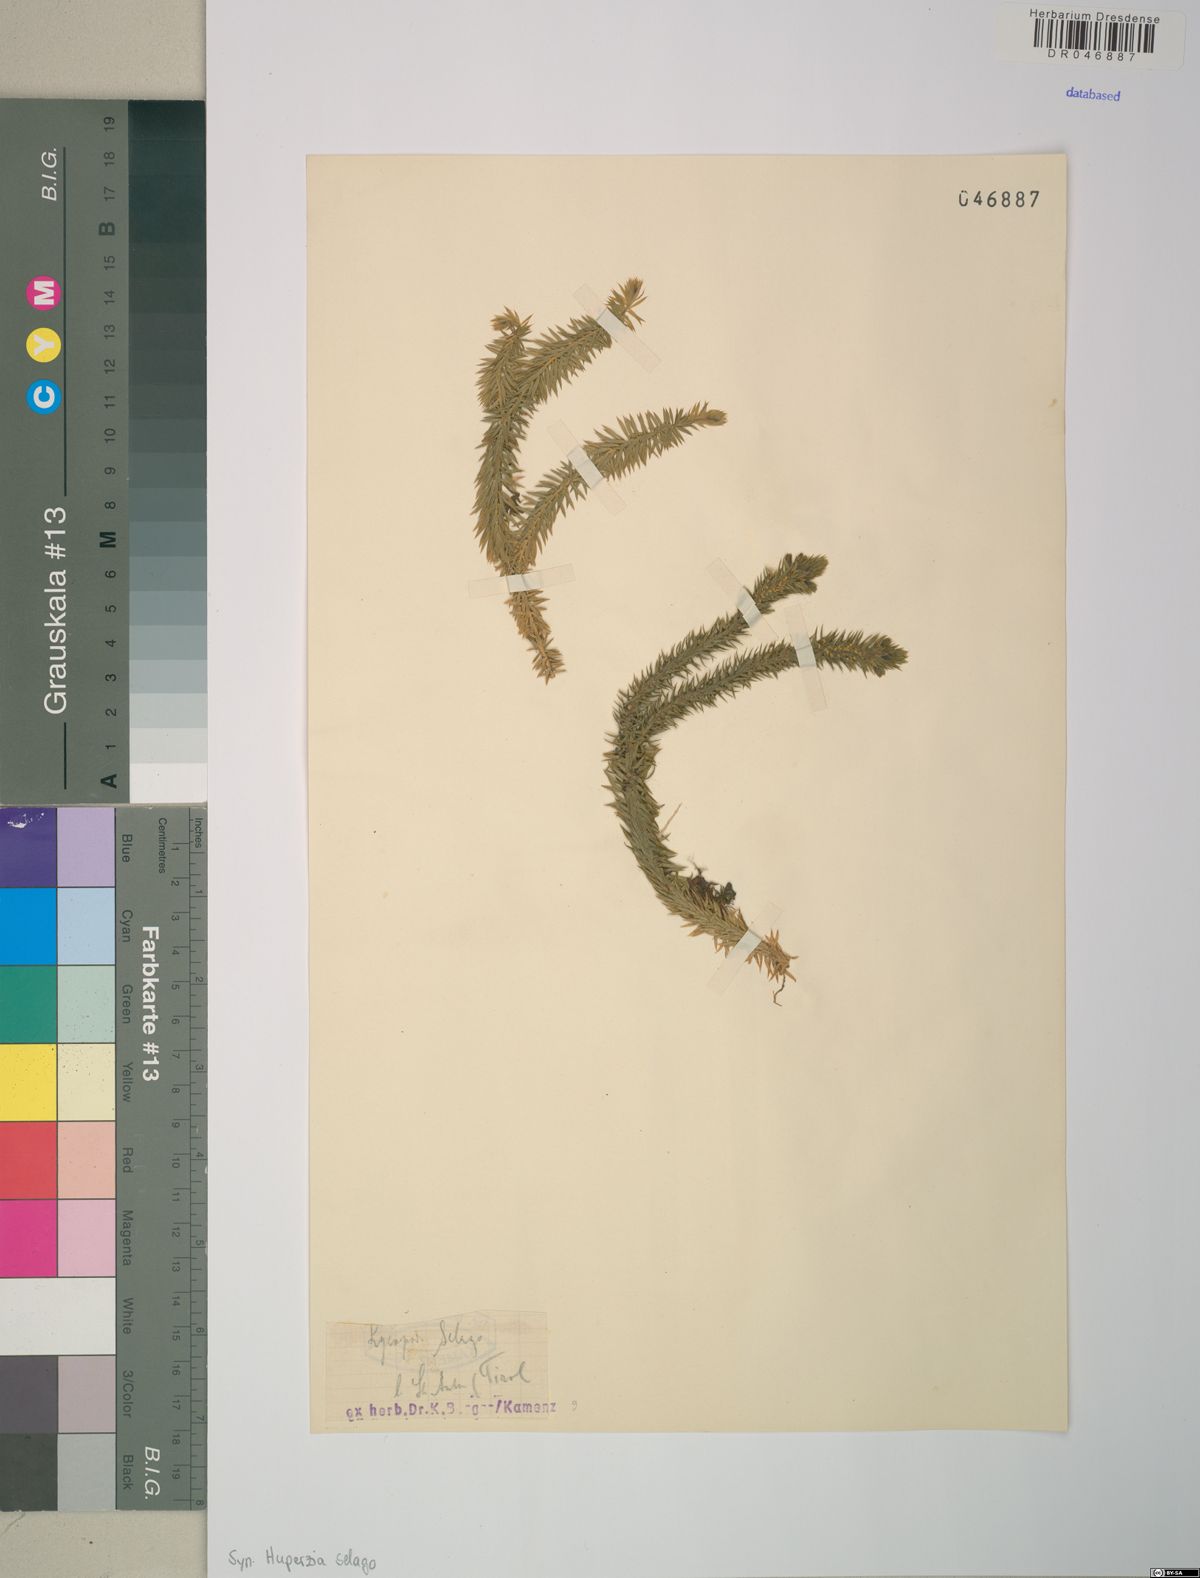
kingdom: Plantae
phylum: Tracheophyta
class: Lycopodiopsida
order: Lycopodiales
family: Lycopodiaceae
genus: Huperzia
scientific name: Huperzia selago
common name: Northern firmoss
